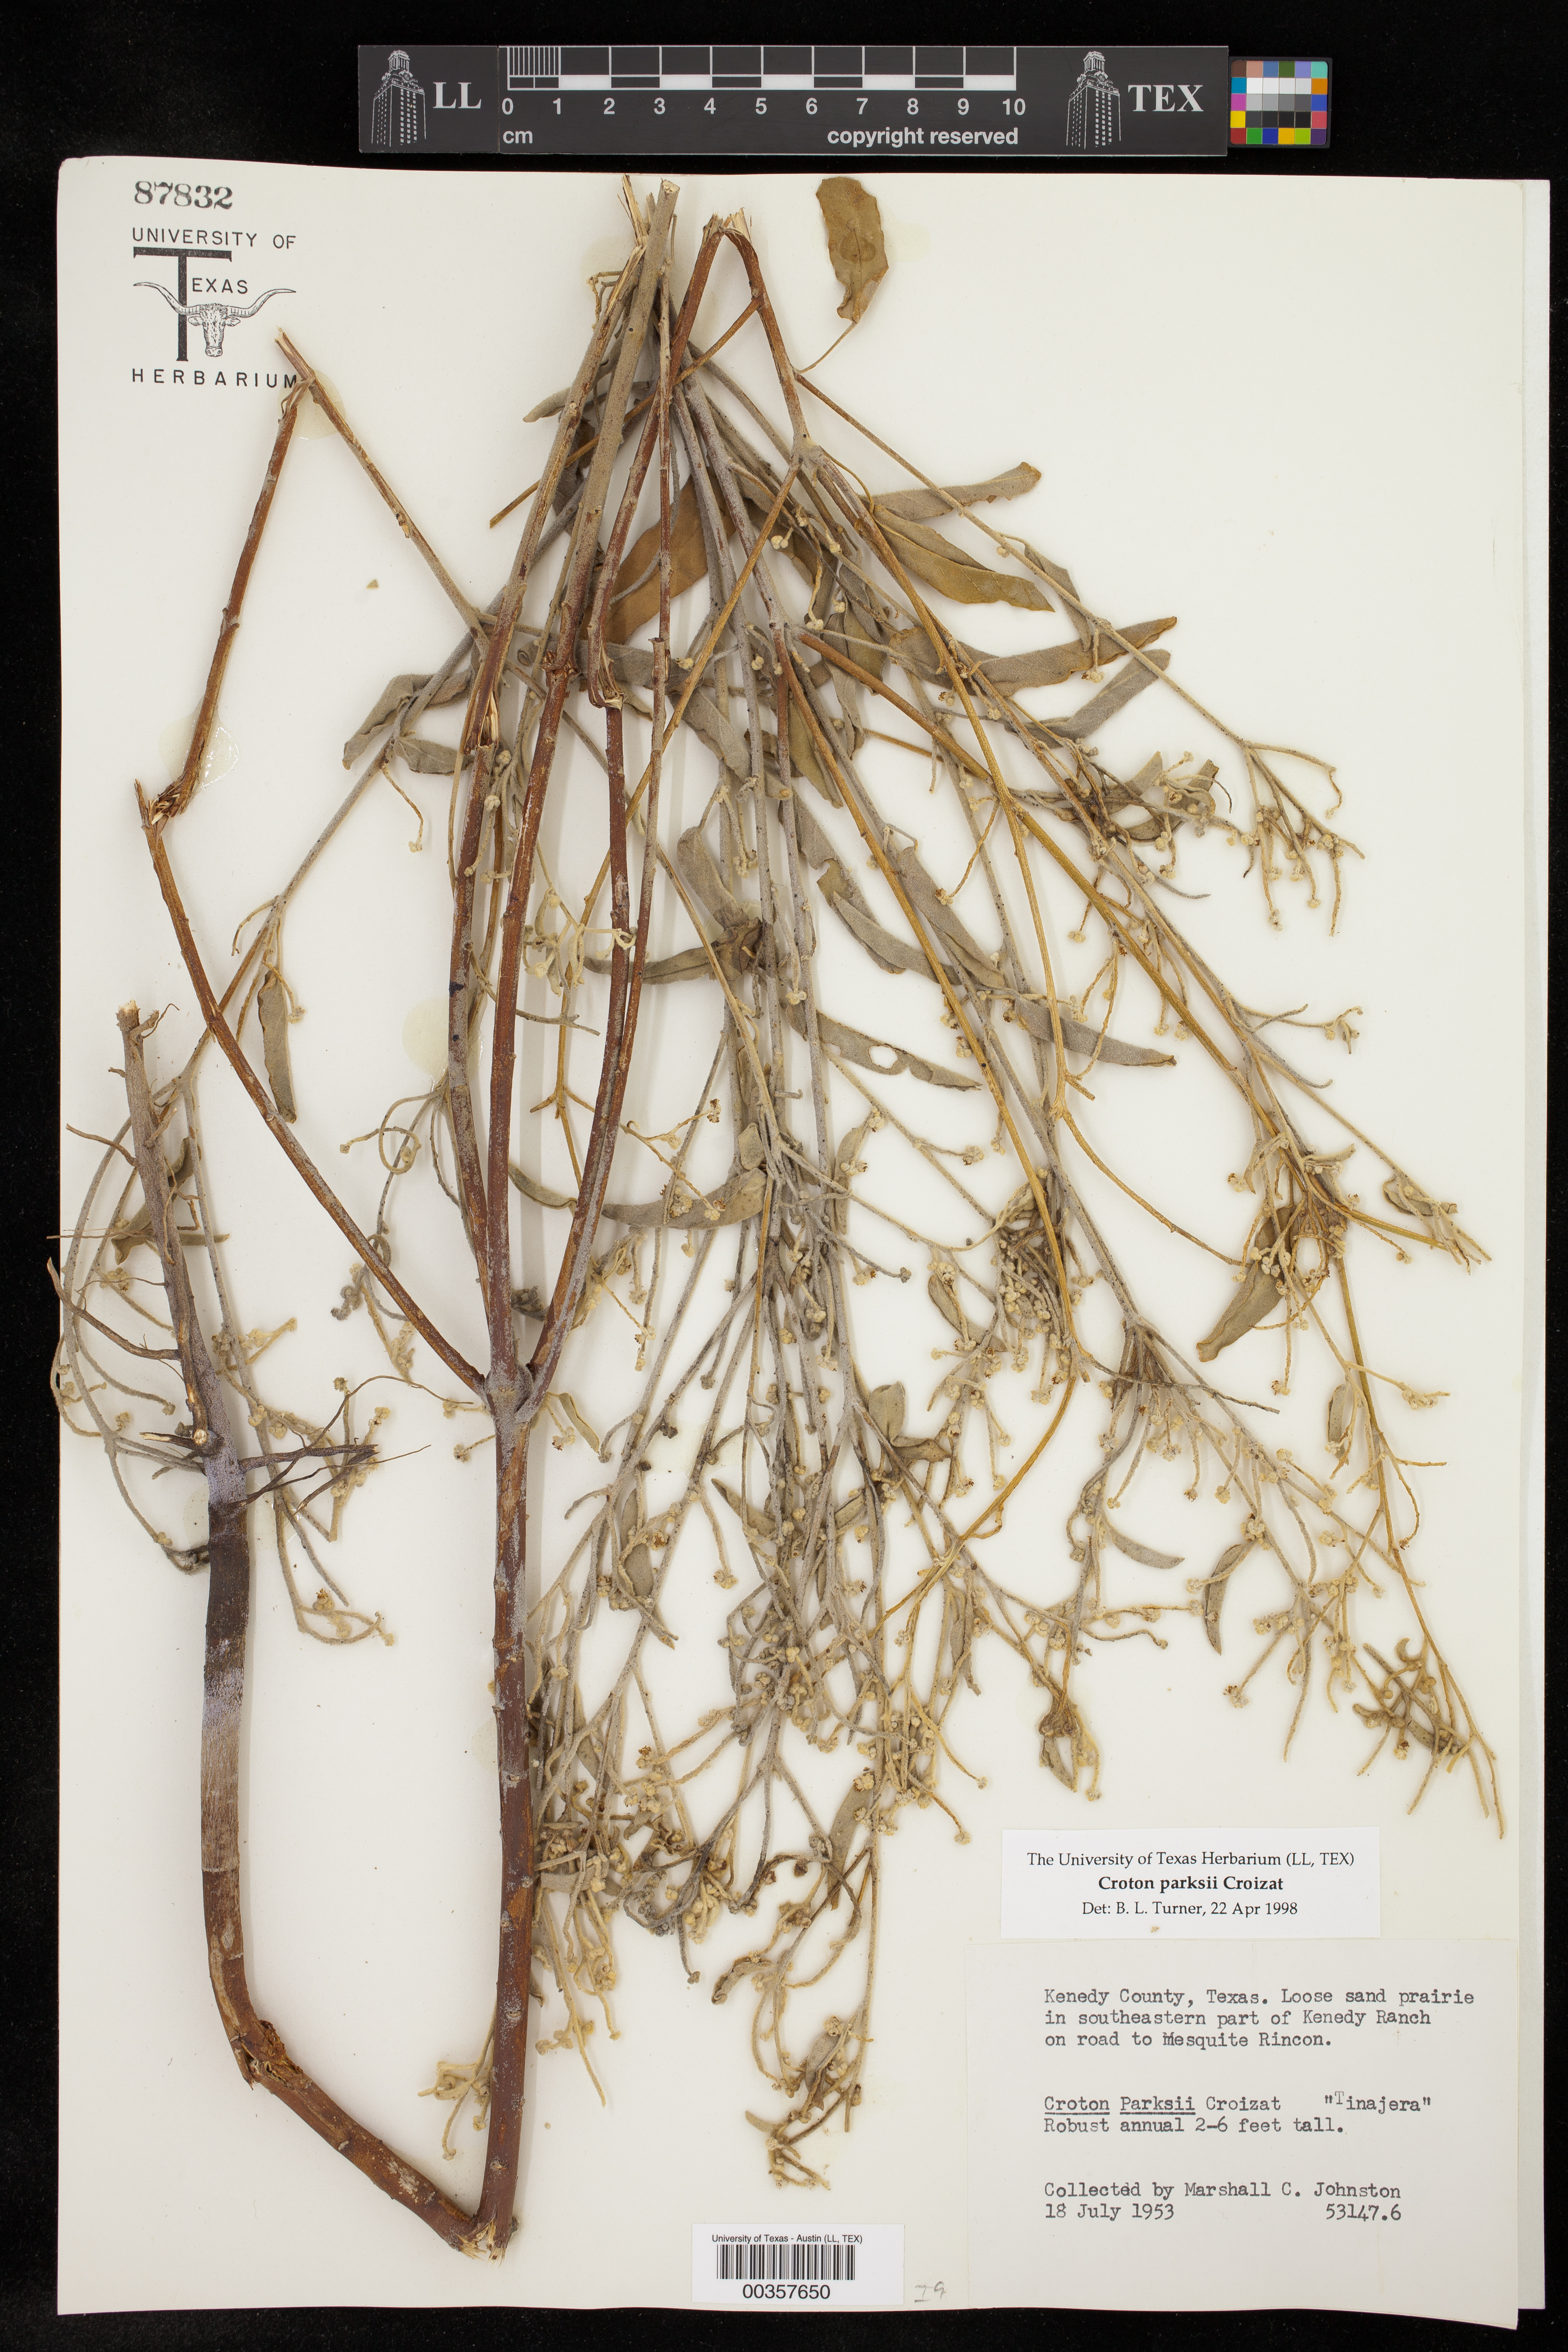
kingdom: Plantae
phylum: Tracheophyta
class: Magnoliopsida
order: Malpighiales
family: Euphorbiaceae
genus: Croton
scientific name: Croton parksii
